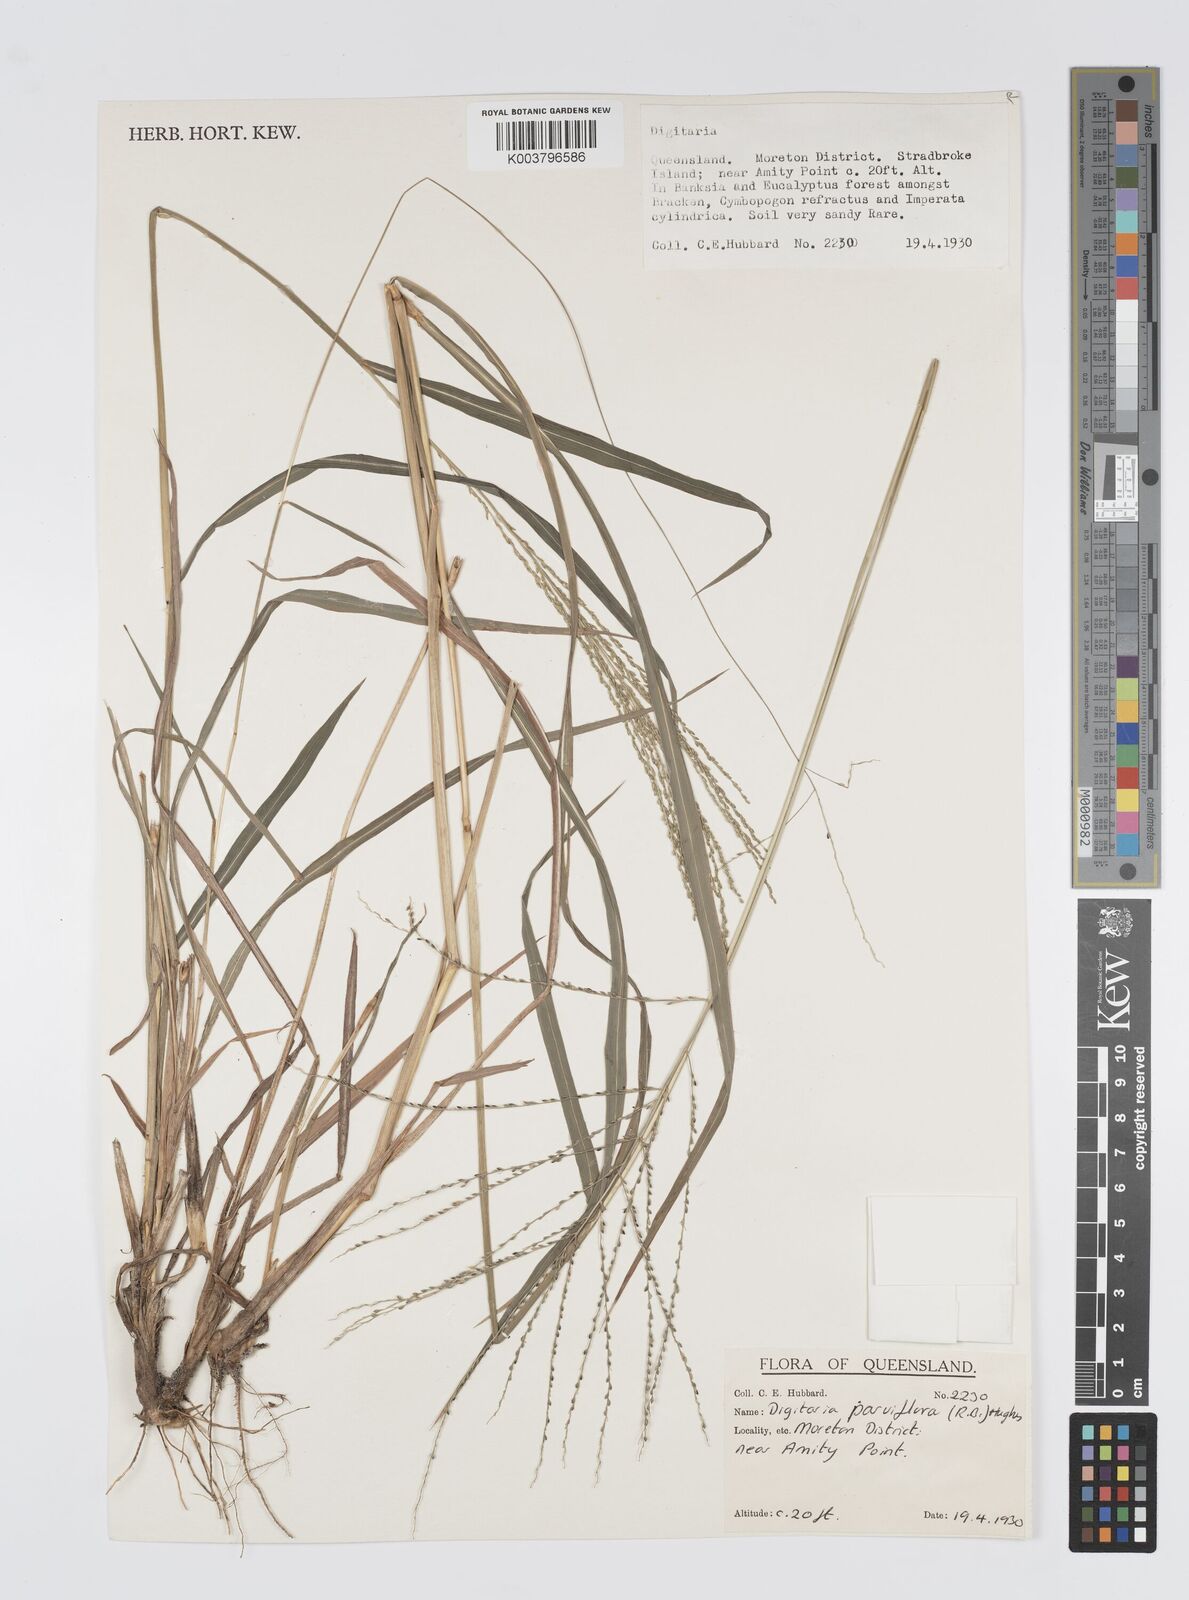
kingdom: Plantae
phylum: Tracheophyta
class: Liliopsida
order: Poales
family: Poaceae
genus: Digitaria
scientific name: Digitaria parviflora
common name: Small-flower finger grass
